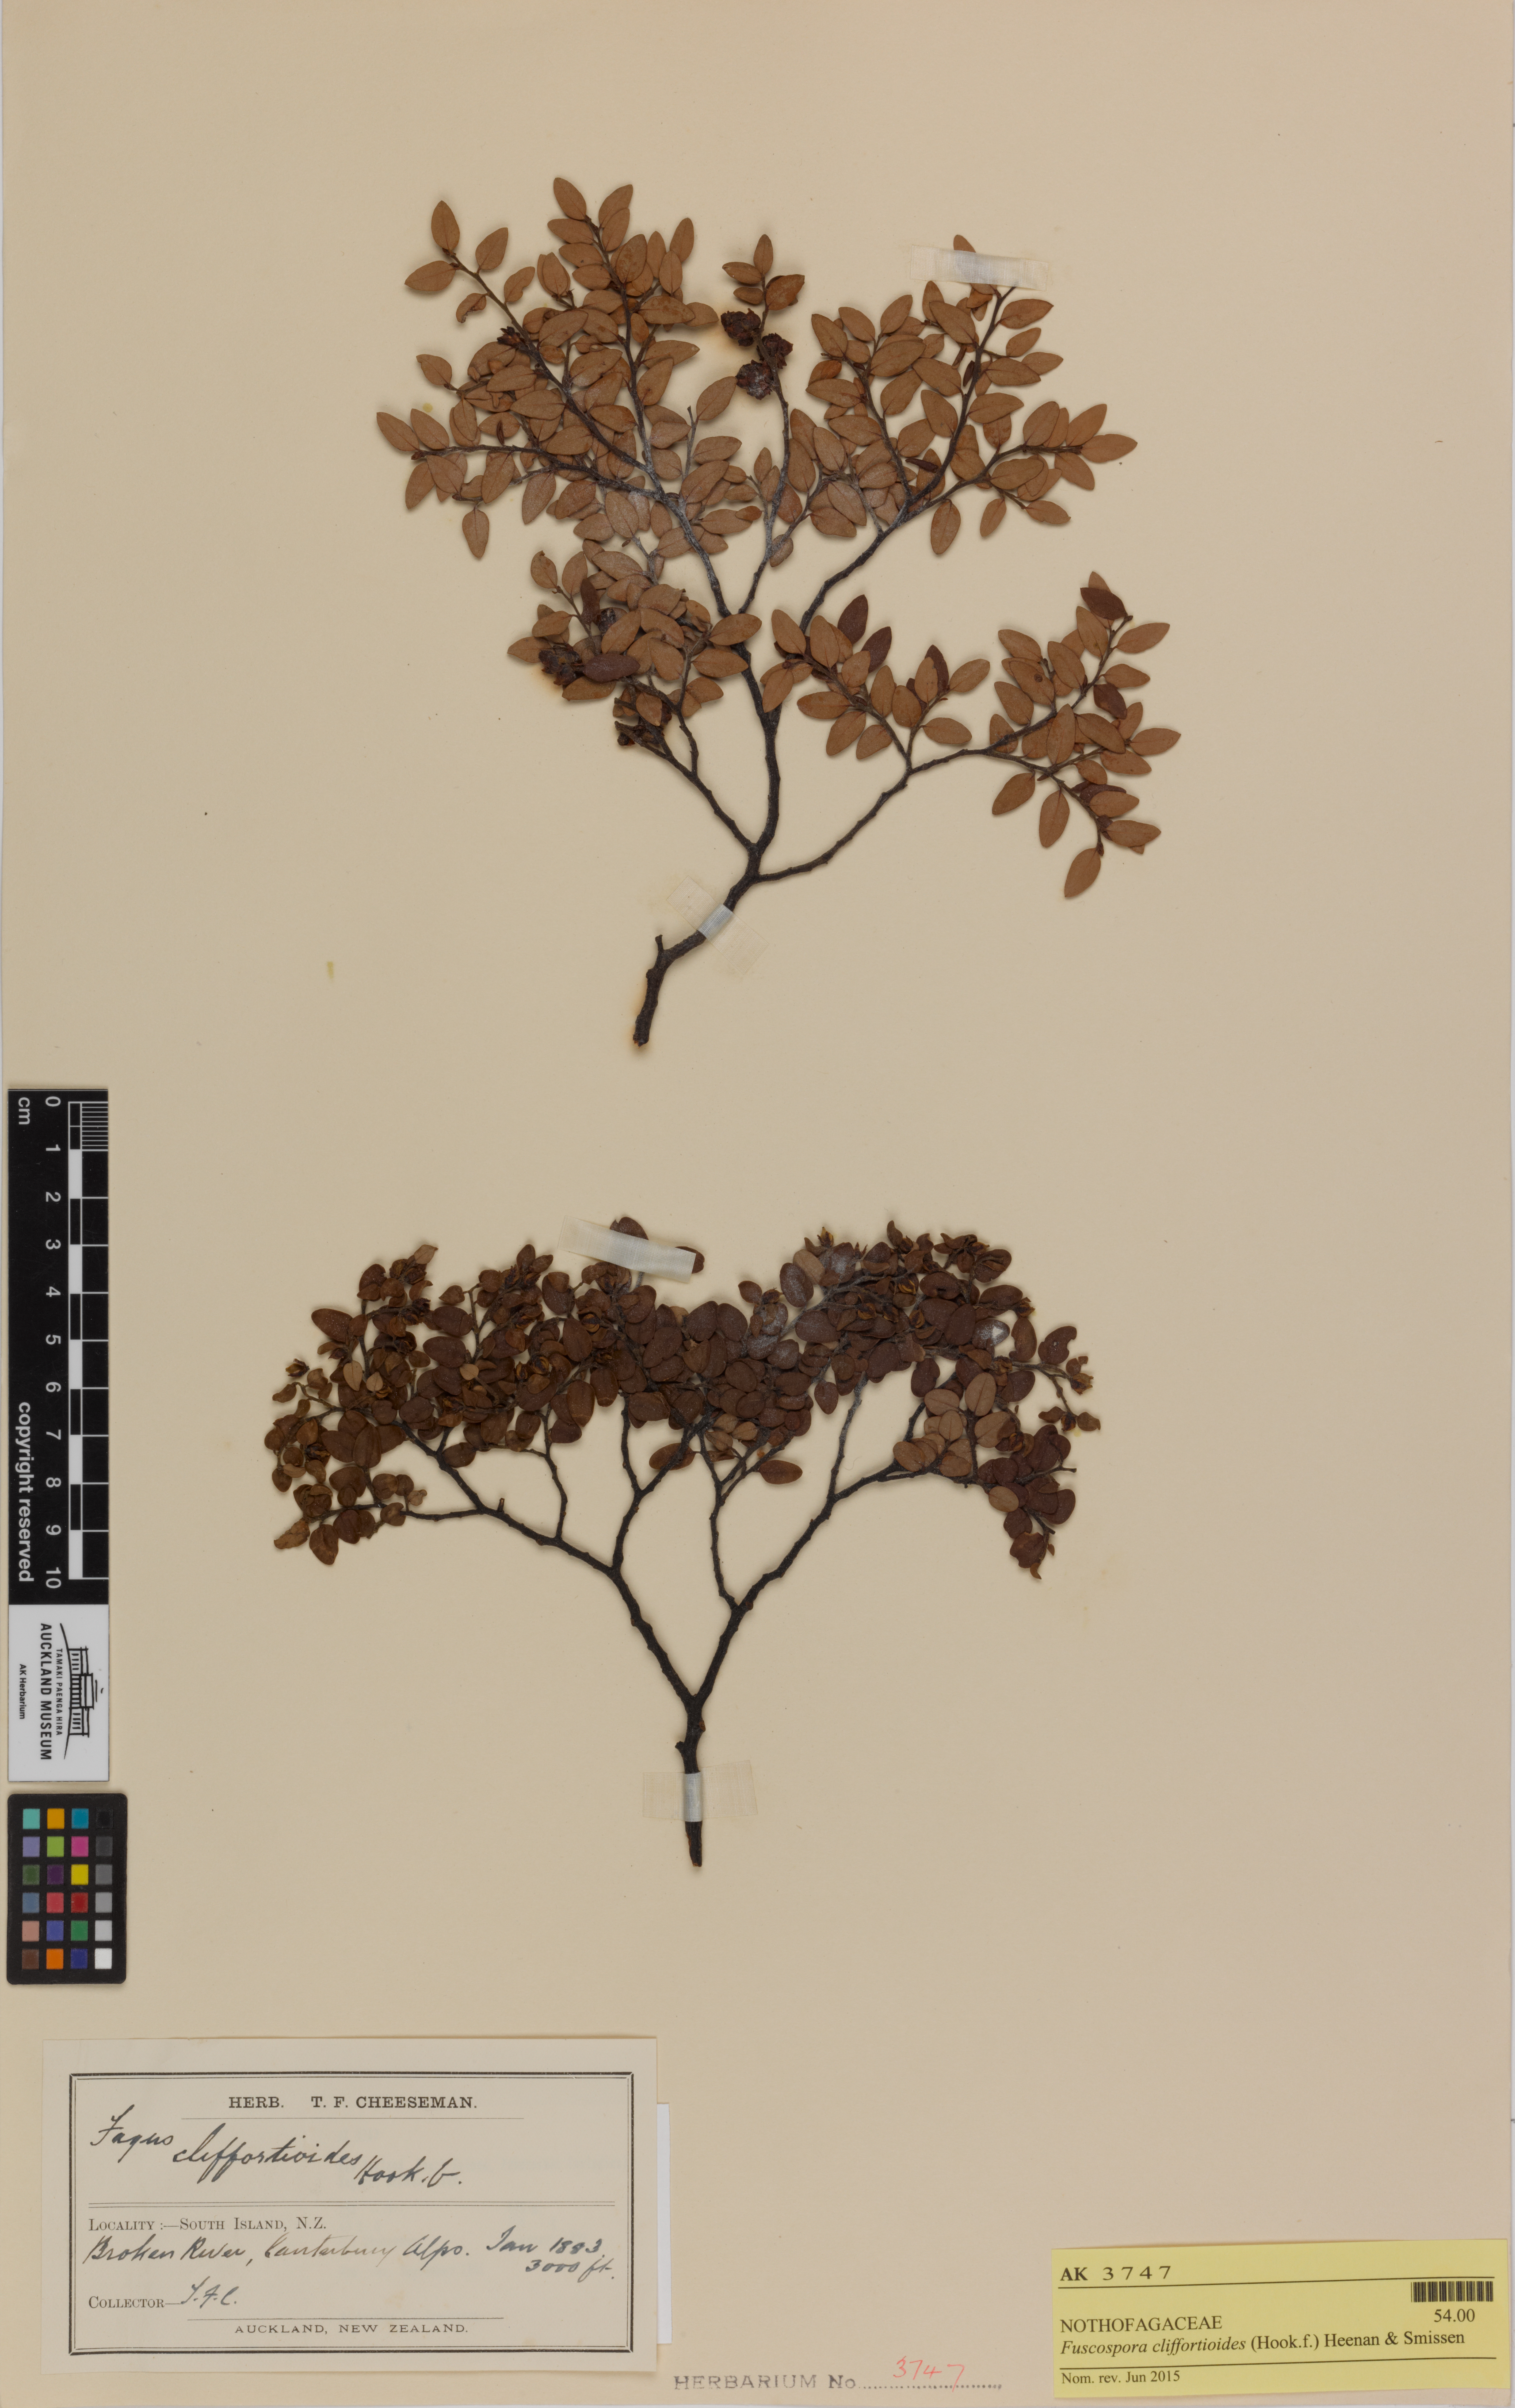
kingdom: Plantae
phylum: Tracheophyta
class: Magnoliopsida
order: Fagales
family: Nothofagaceae
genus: Nothofagus
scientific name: Nothofagus cliffortioides
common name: Mountain beech
